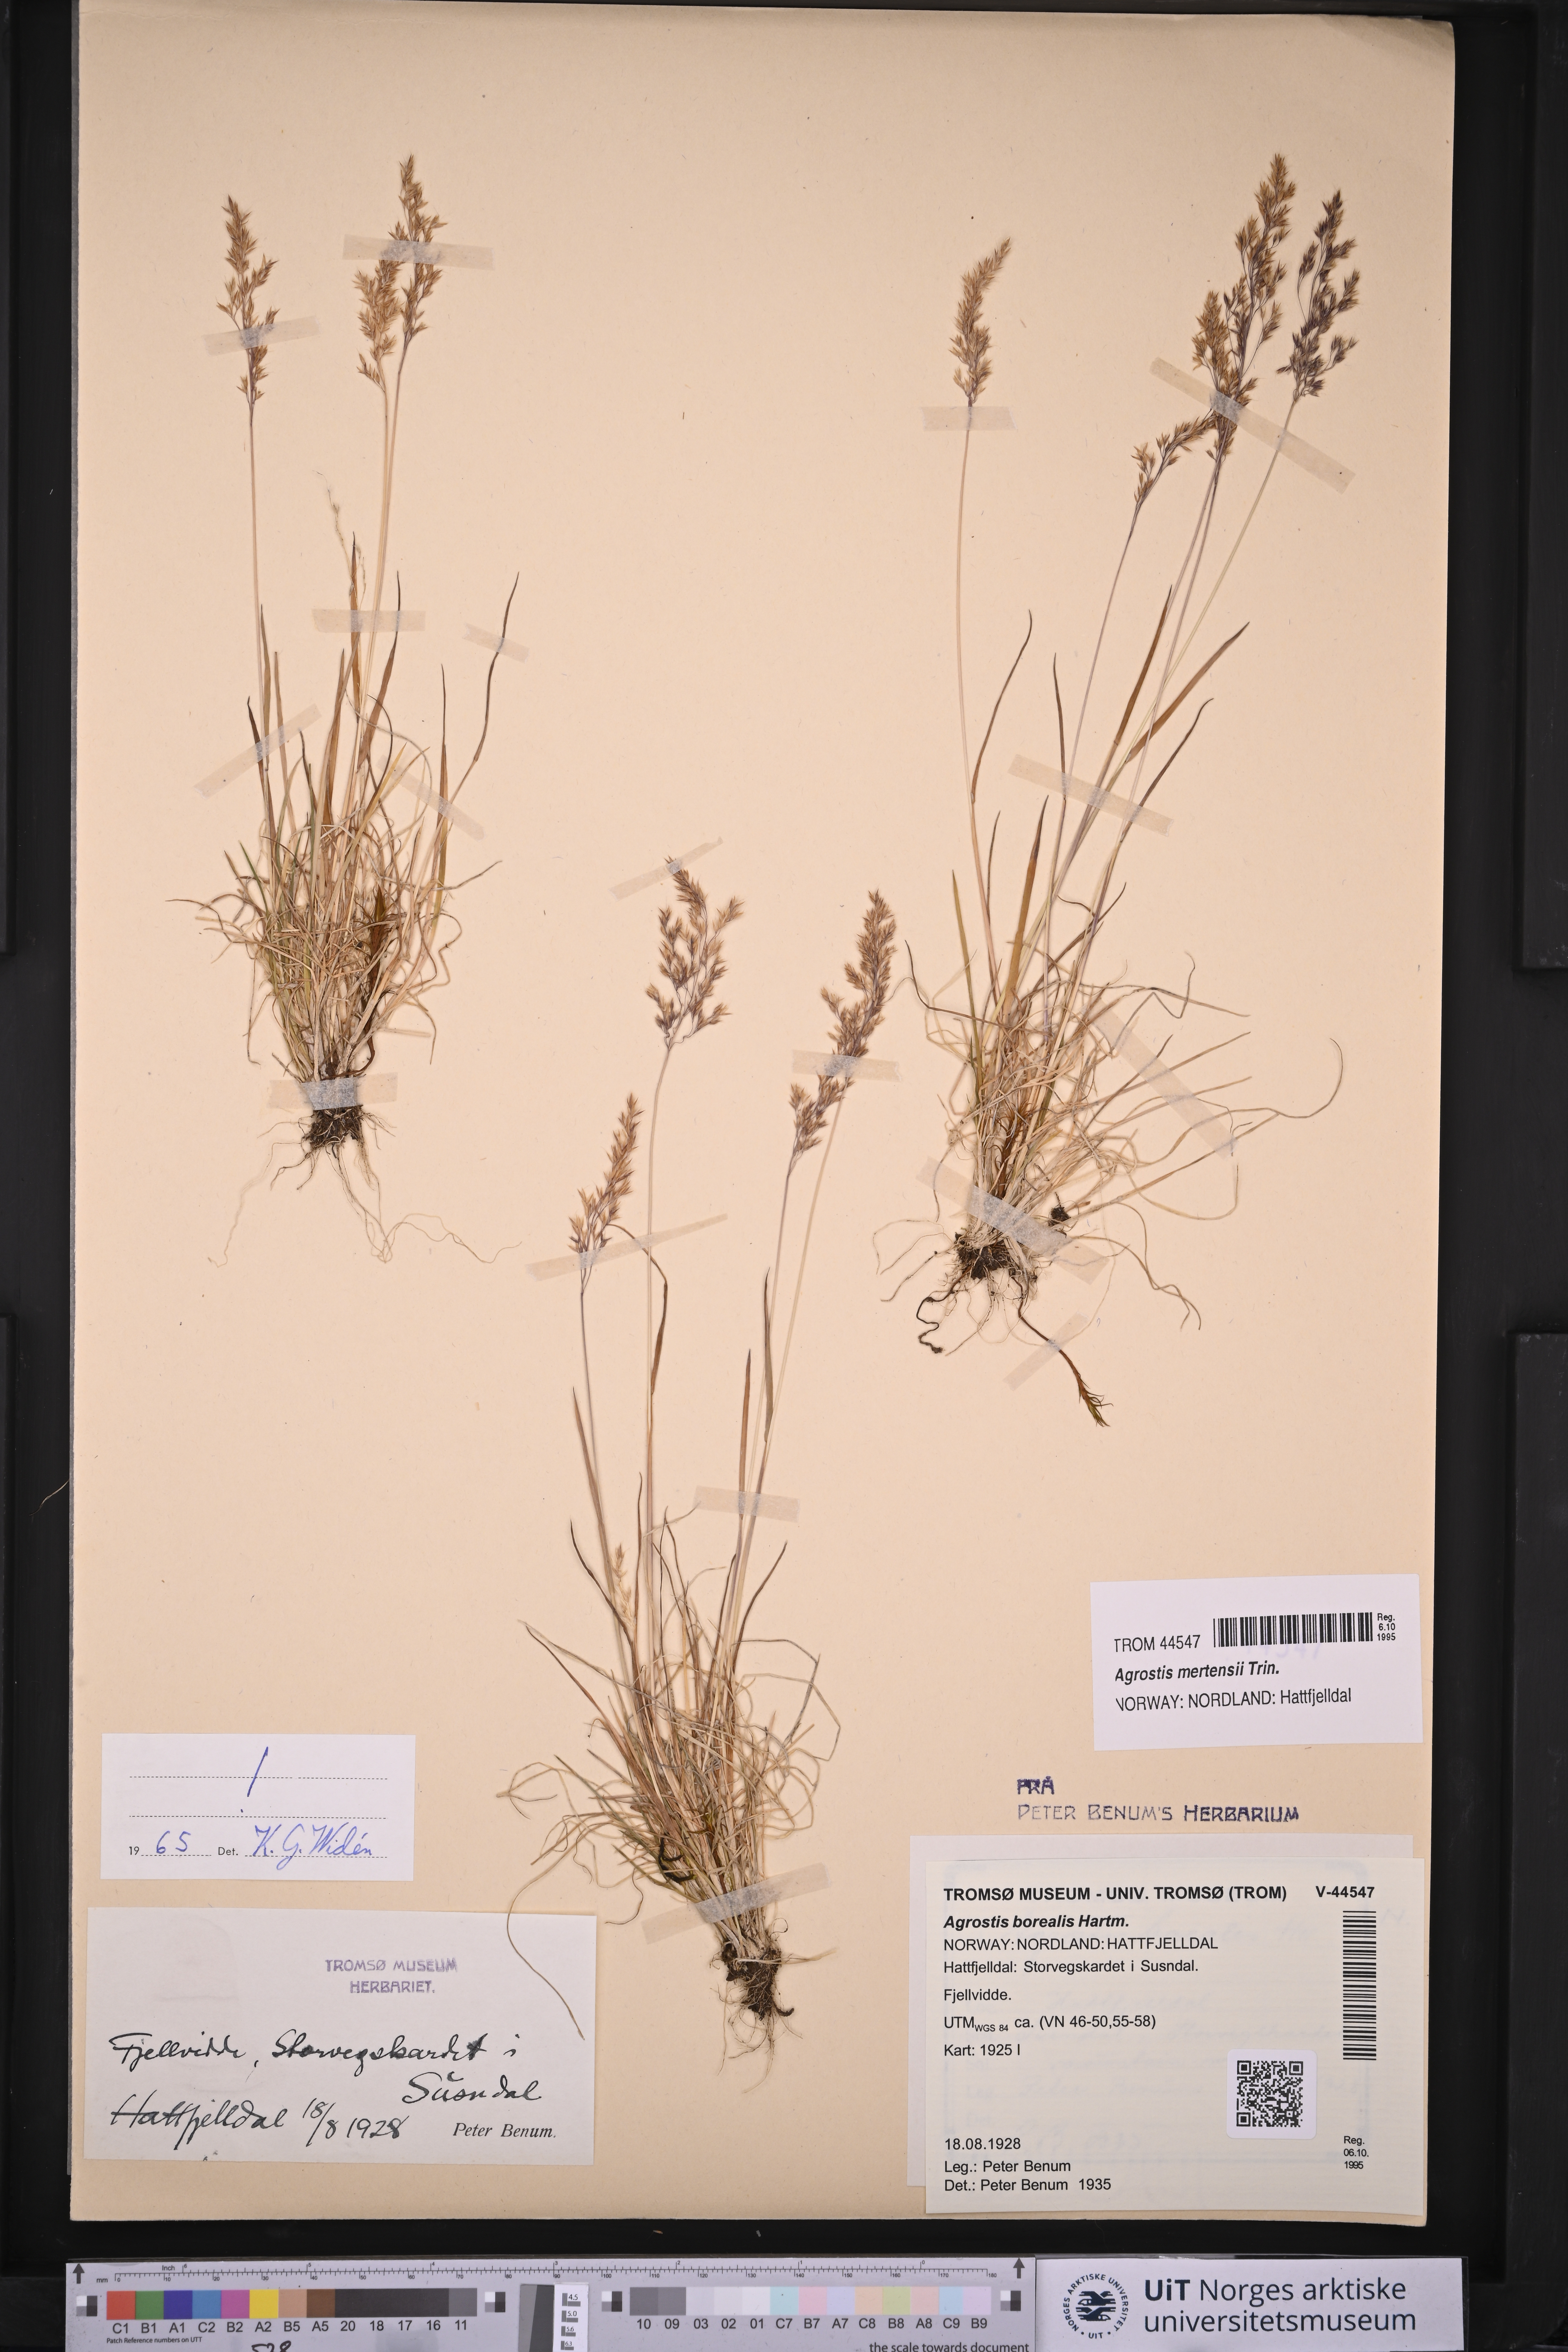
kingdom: Plantae
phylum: Tracheophyta
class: Liliopsida
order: Poales
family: Poaceae
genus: Agrostis
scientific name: Agrostis mertensii
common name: Northern bent
